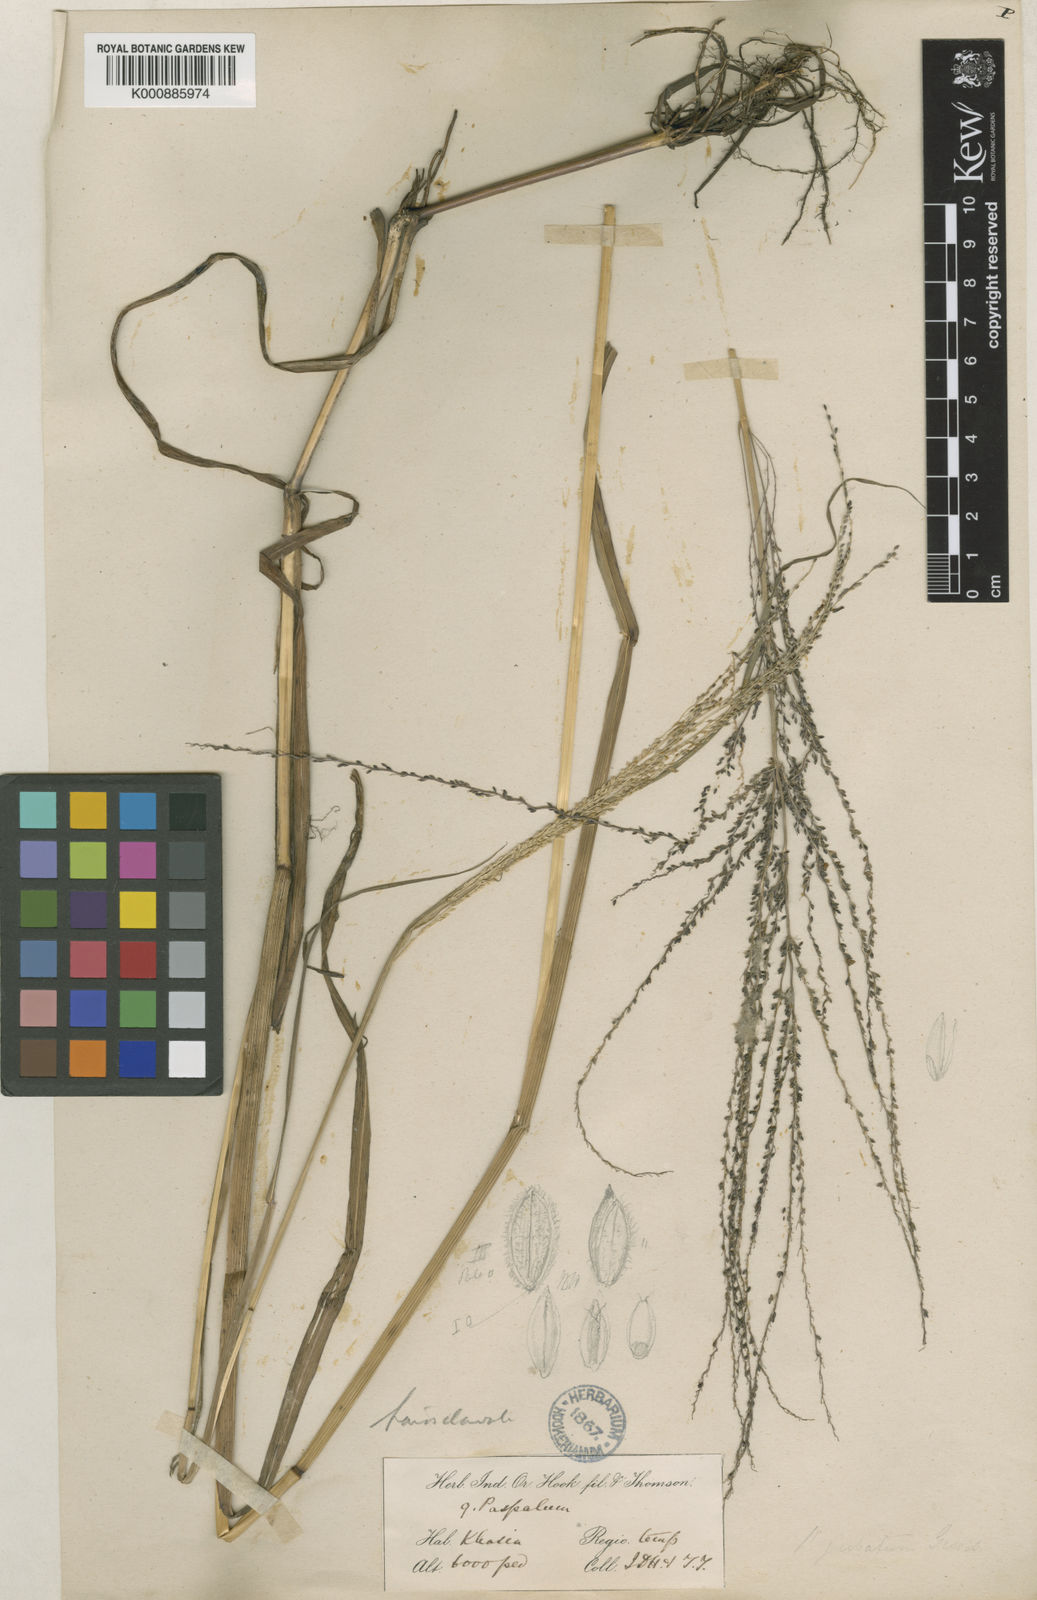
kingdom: Plantae
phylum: Tracheophyta
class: Liliopsida
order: Poales
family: Poaceae
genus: Digitaria
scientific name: Digitaria jubata
